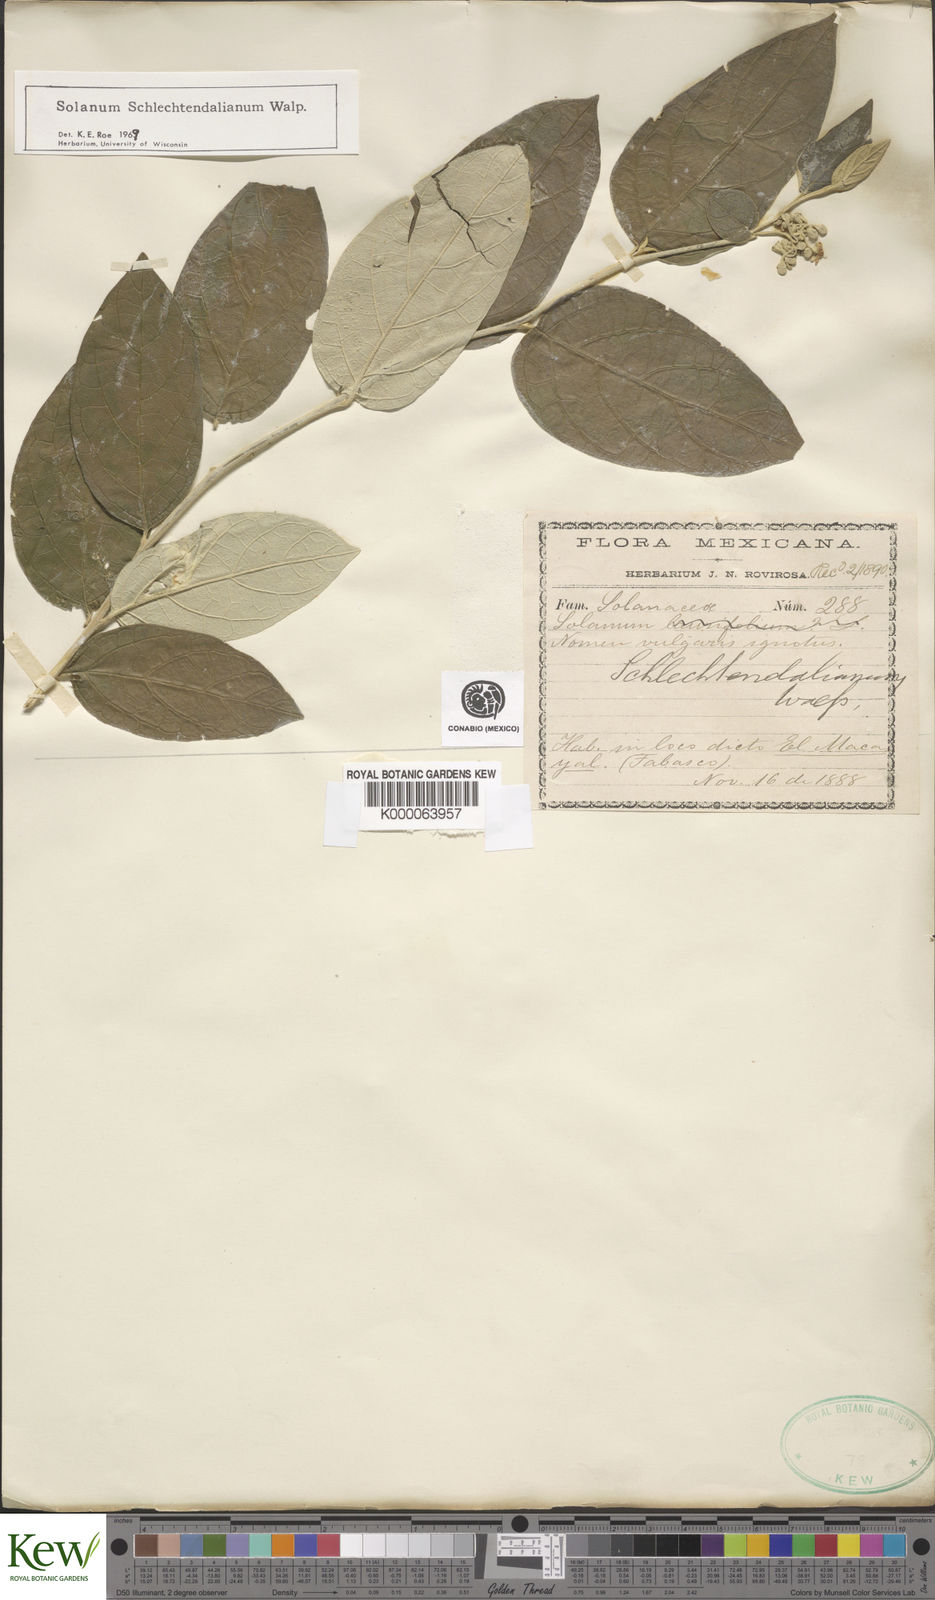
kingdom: Plantae
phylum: Tracheophyta
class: Magnoliopsida
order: Solanales
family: Solanaceae
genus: Solanum
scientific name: Solanum schlechtendalianum
